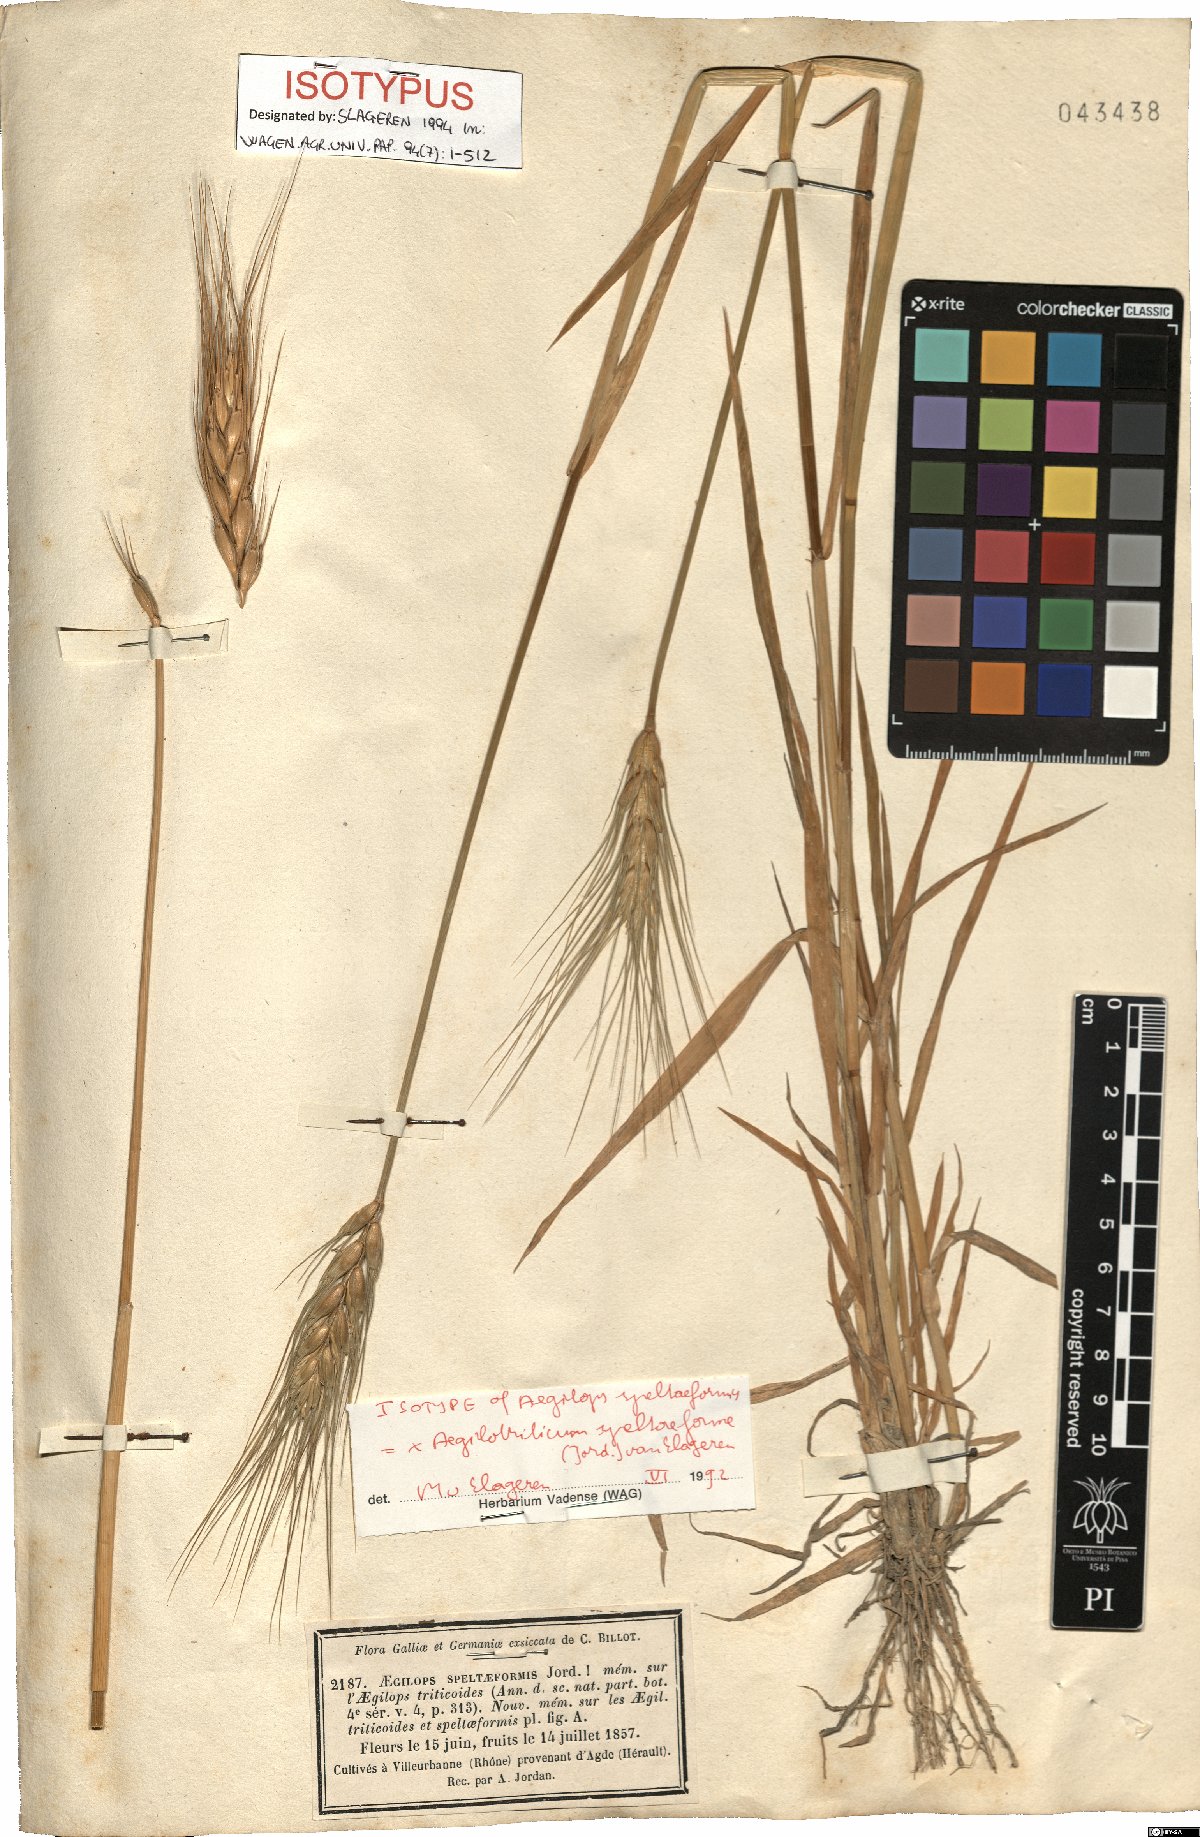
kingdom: Plantae
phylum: Tracheophyta
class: Liliopsida
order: Poales
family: Poaceae
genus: Aegilotriticum
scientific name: Aegilotriticum triticoides
